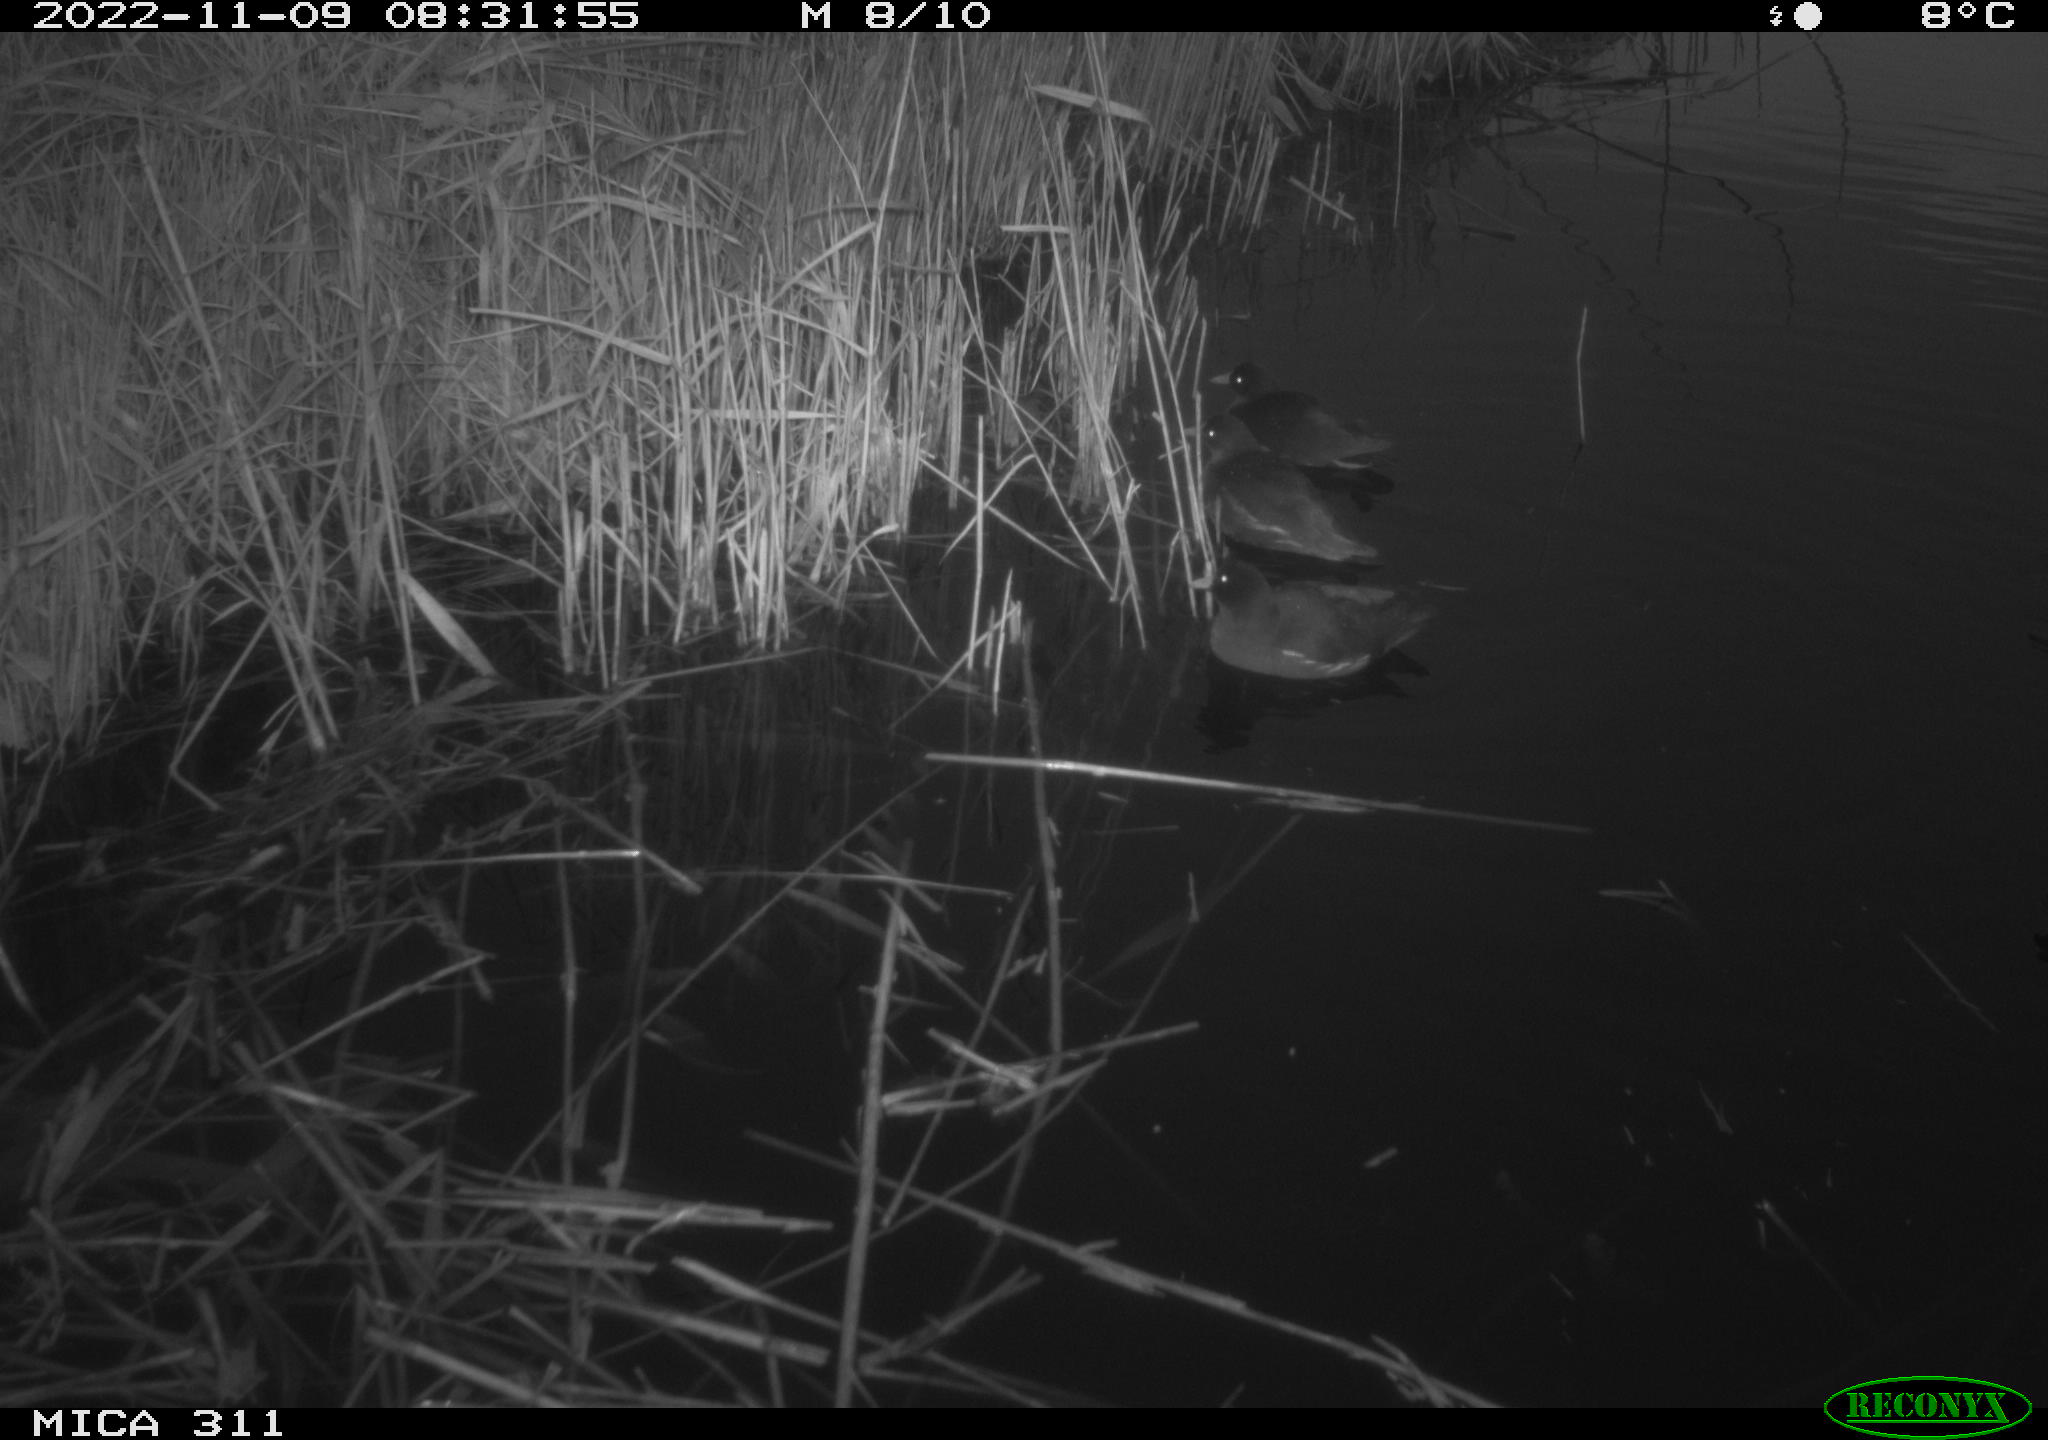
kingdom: Animalia
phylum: Chordata
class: Aves
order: Gruiformes
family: Rallidae
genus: Gallinula
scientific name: Gallinula chloropus
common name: Common moorhen
